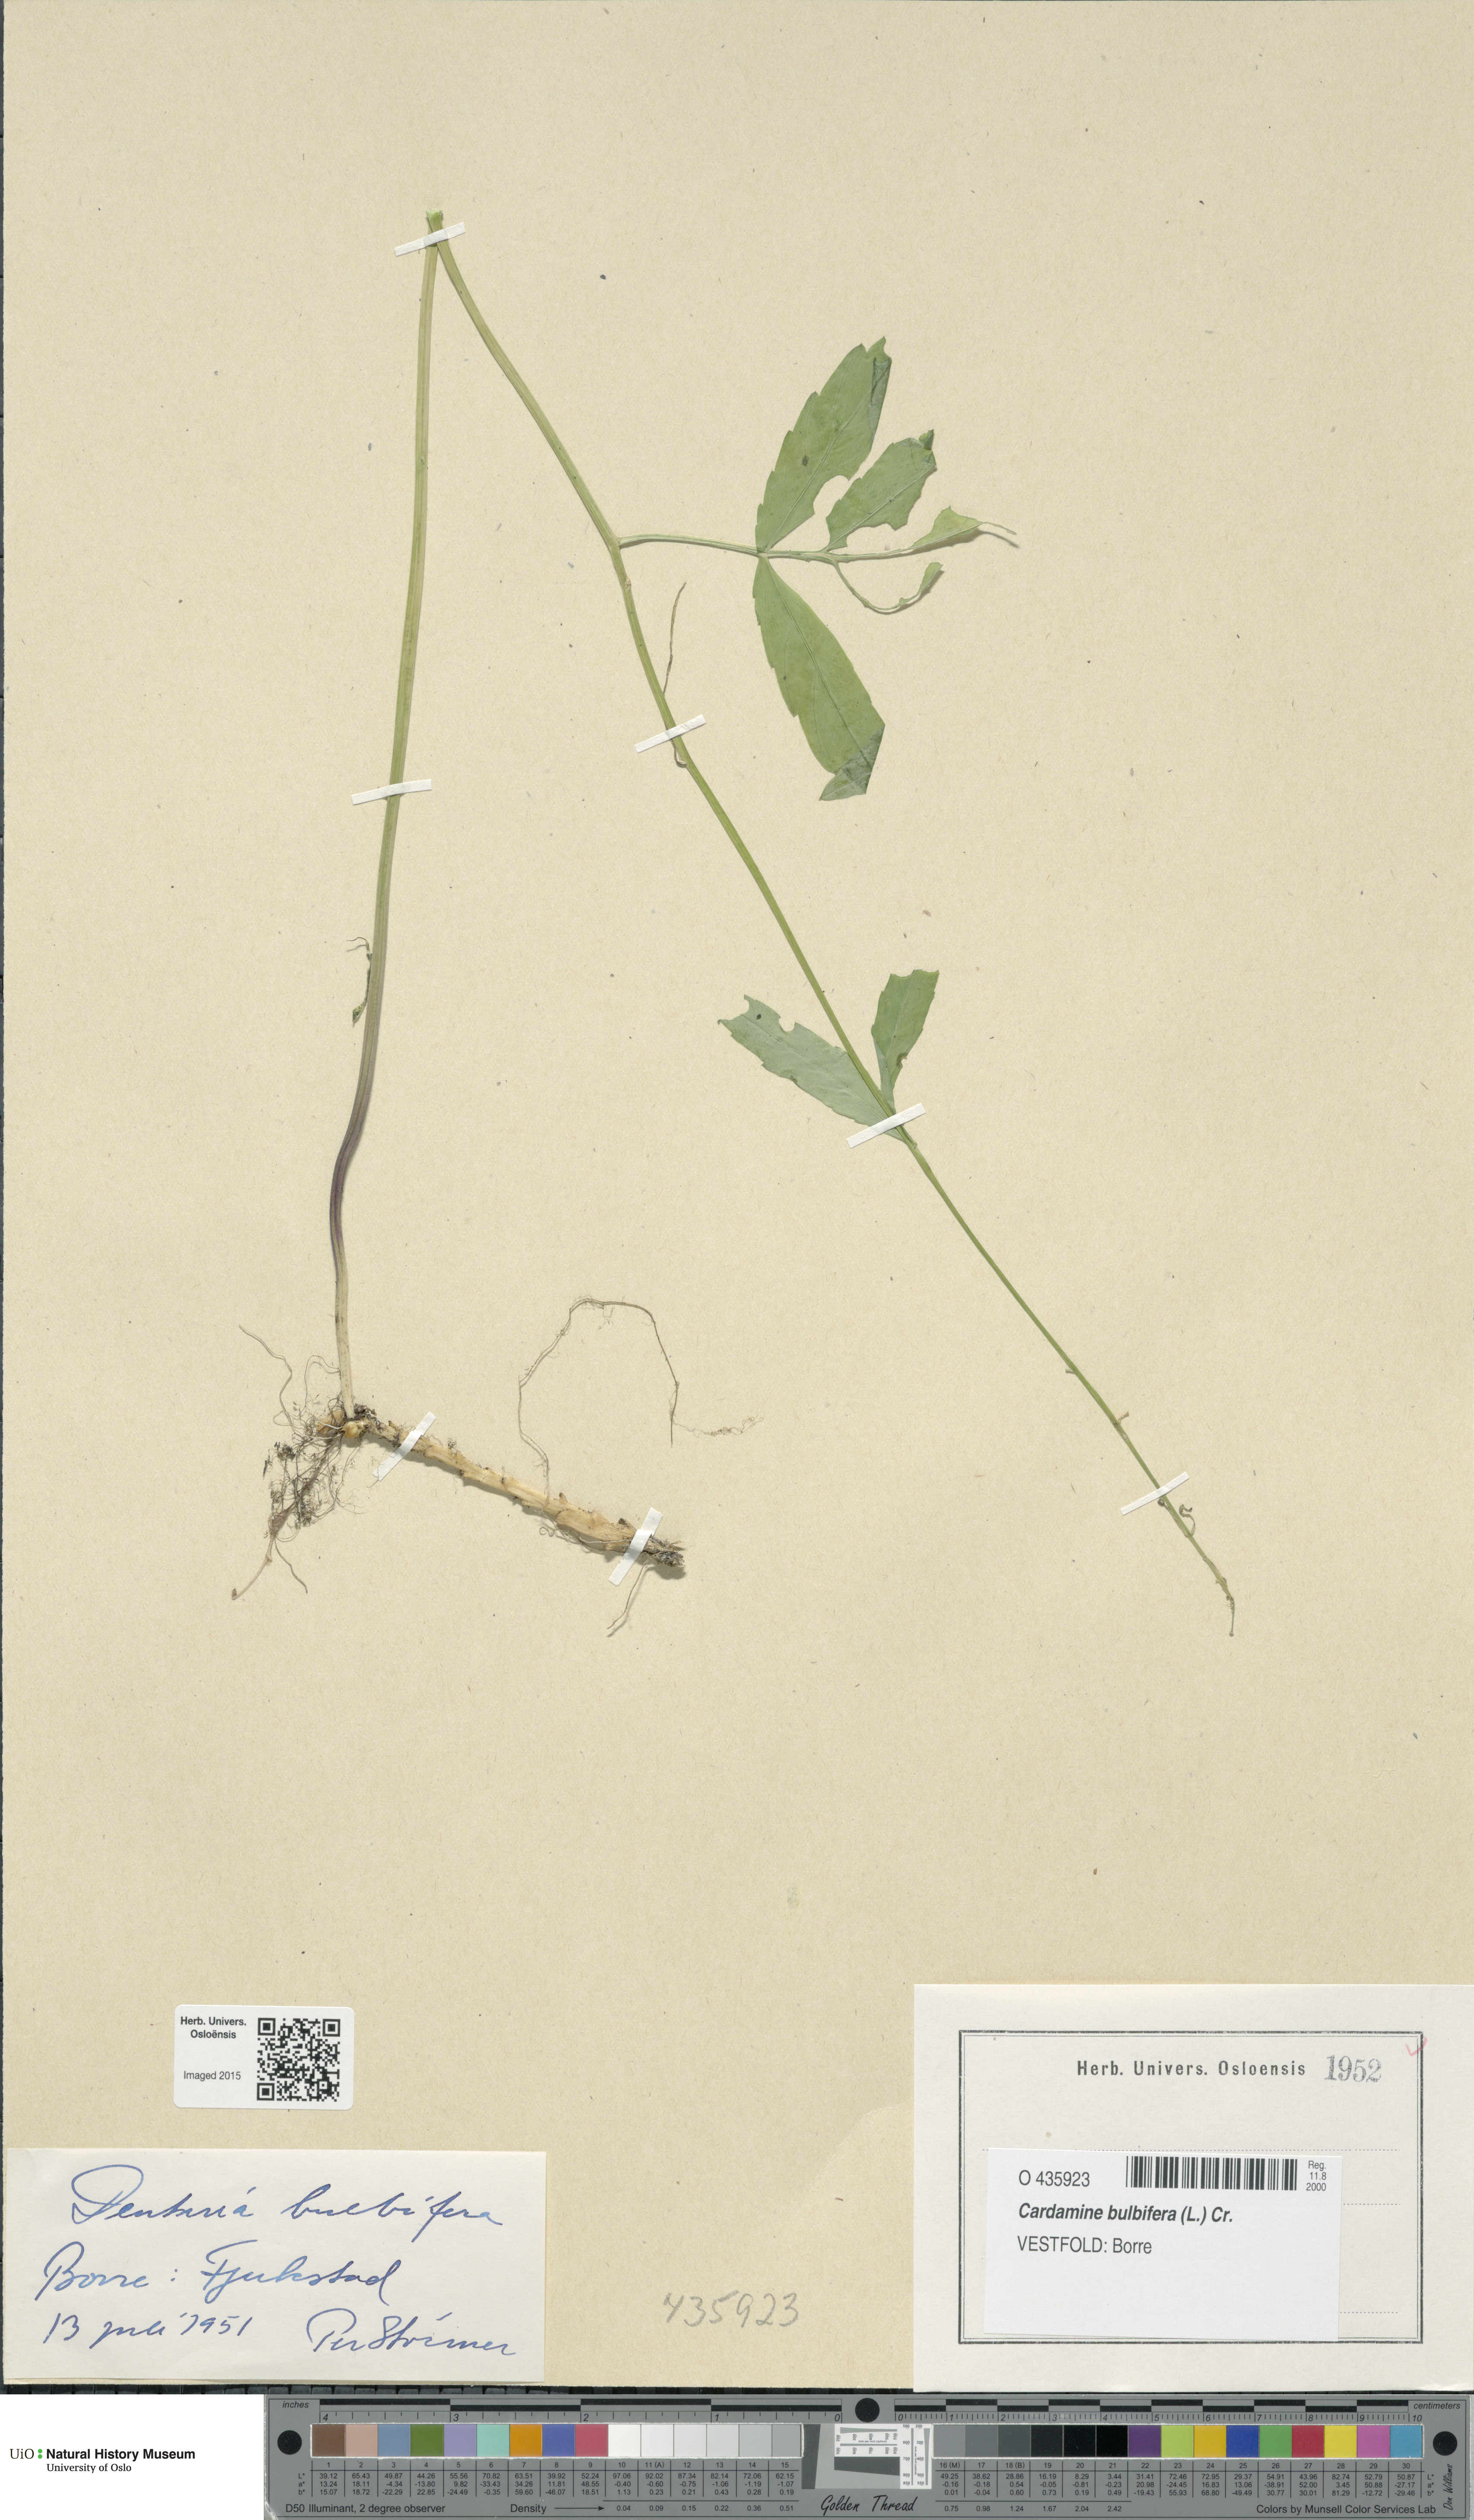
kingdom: Plantae
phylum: Tracheophyta
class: Magnoliopsida
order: Brassicales
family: Brassicaceae
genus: Cardamine
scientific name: Cardamine bulbifera
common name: Coralroot bittercress
